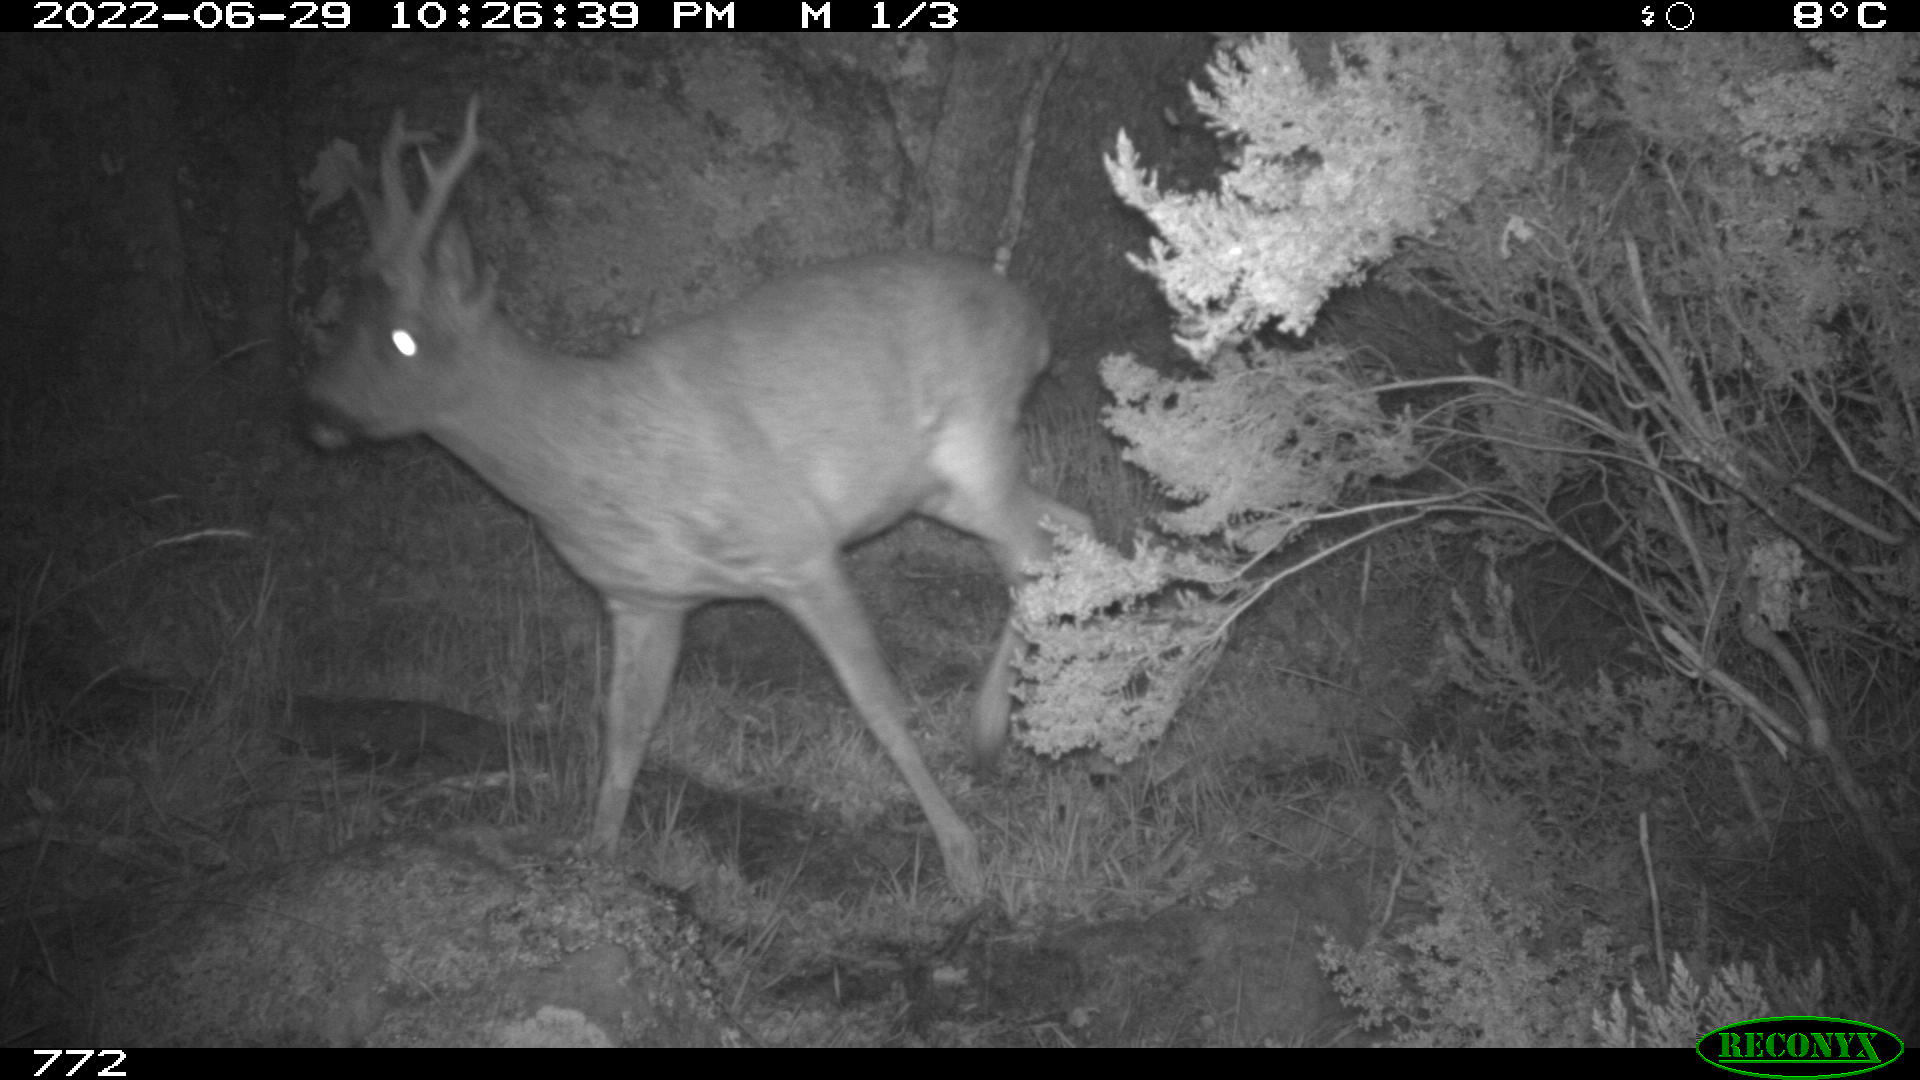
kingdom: Animalia
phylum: Chordata
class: Mammalia
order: Artiodactyla
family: Cervidae
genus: Capreolus
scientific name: Capreolus capreolus
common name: Western roe deer
